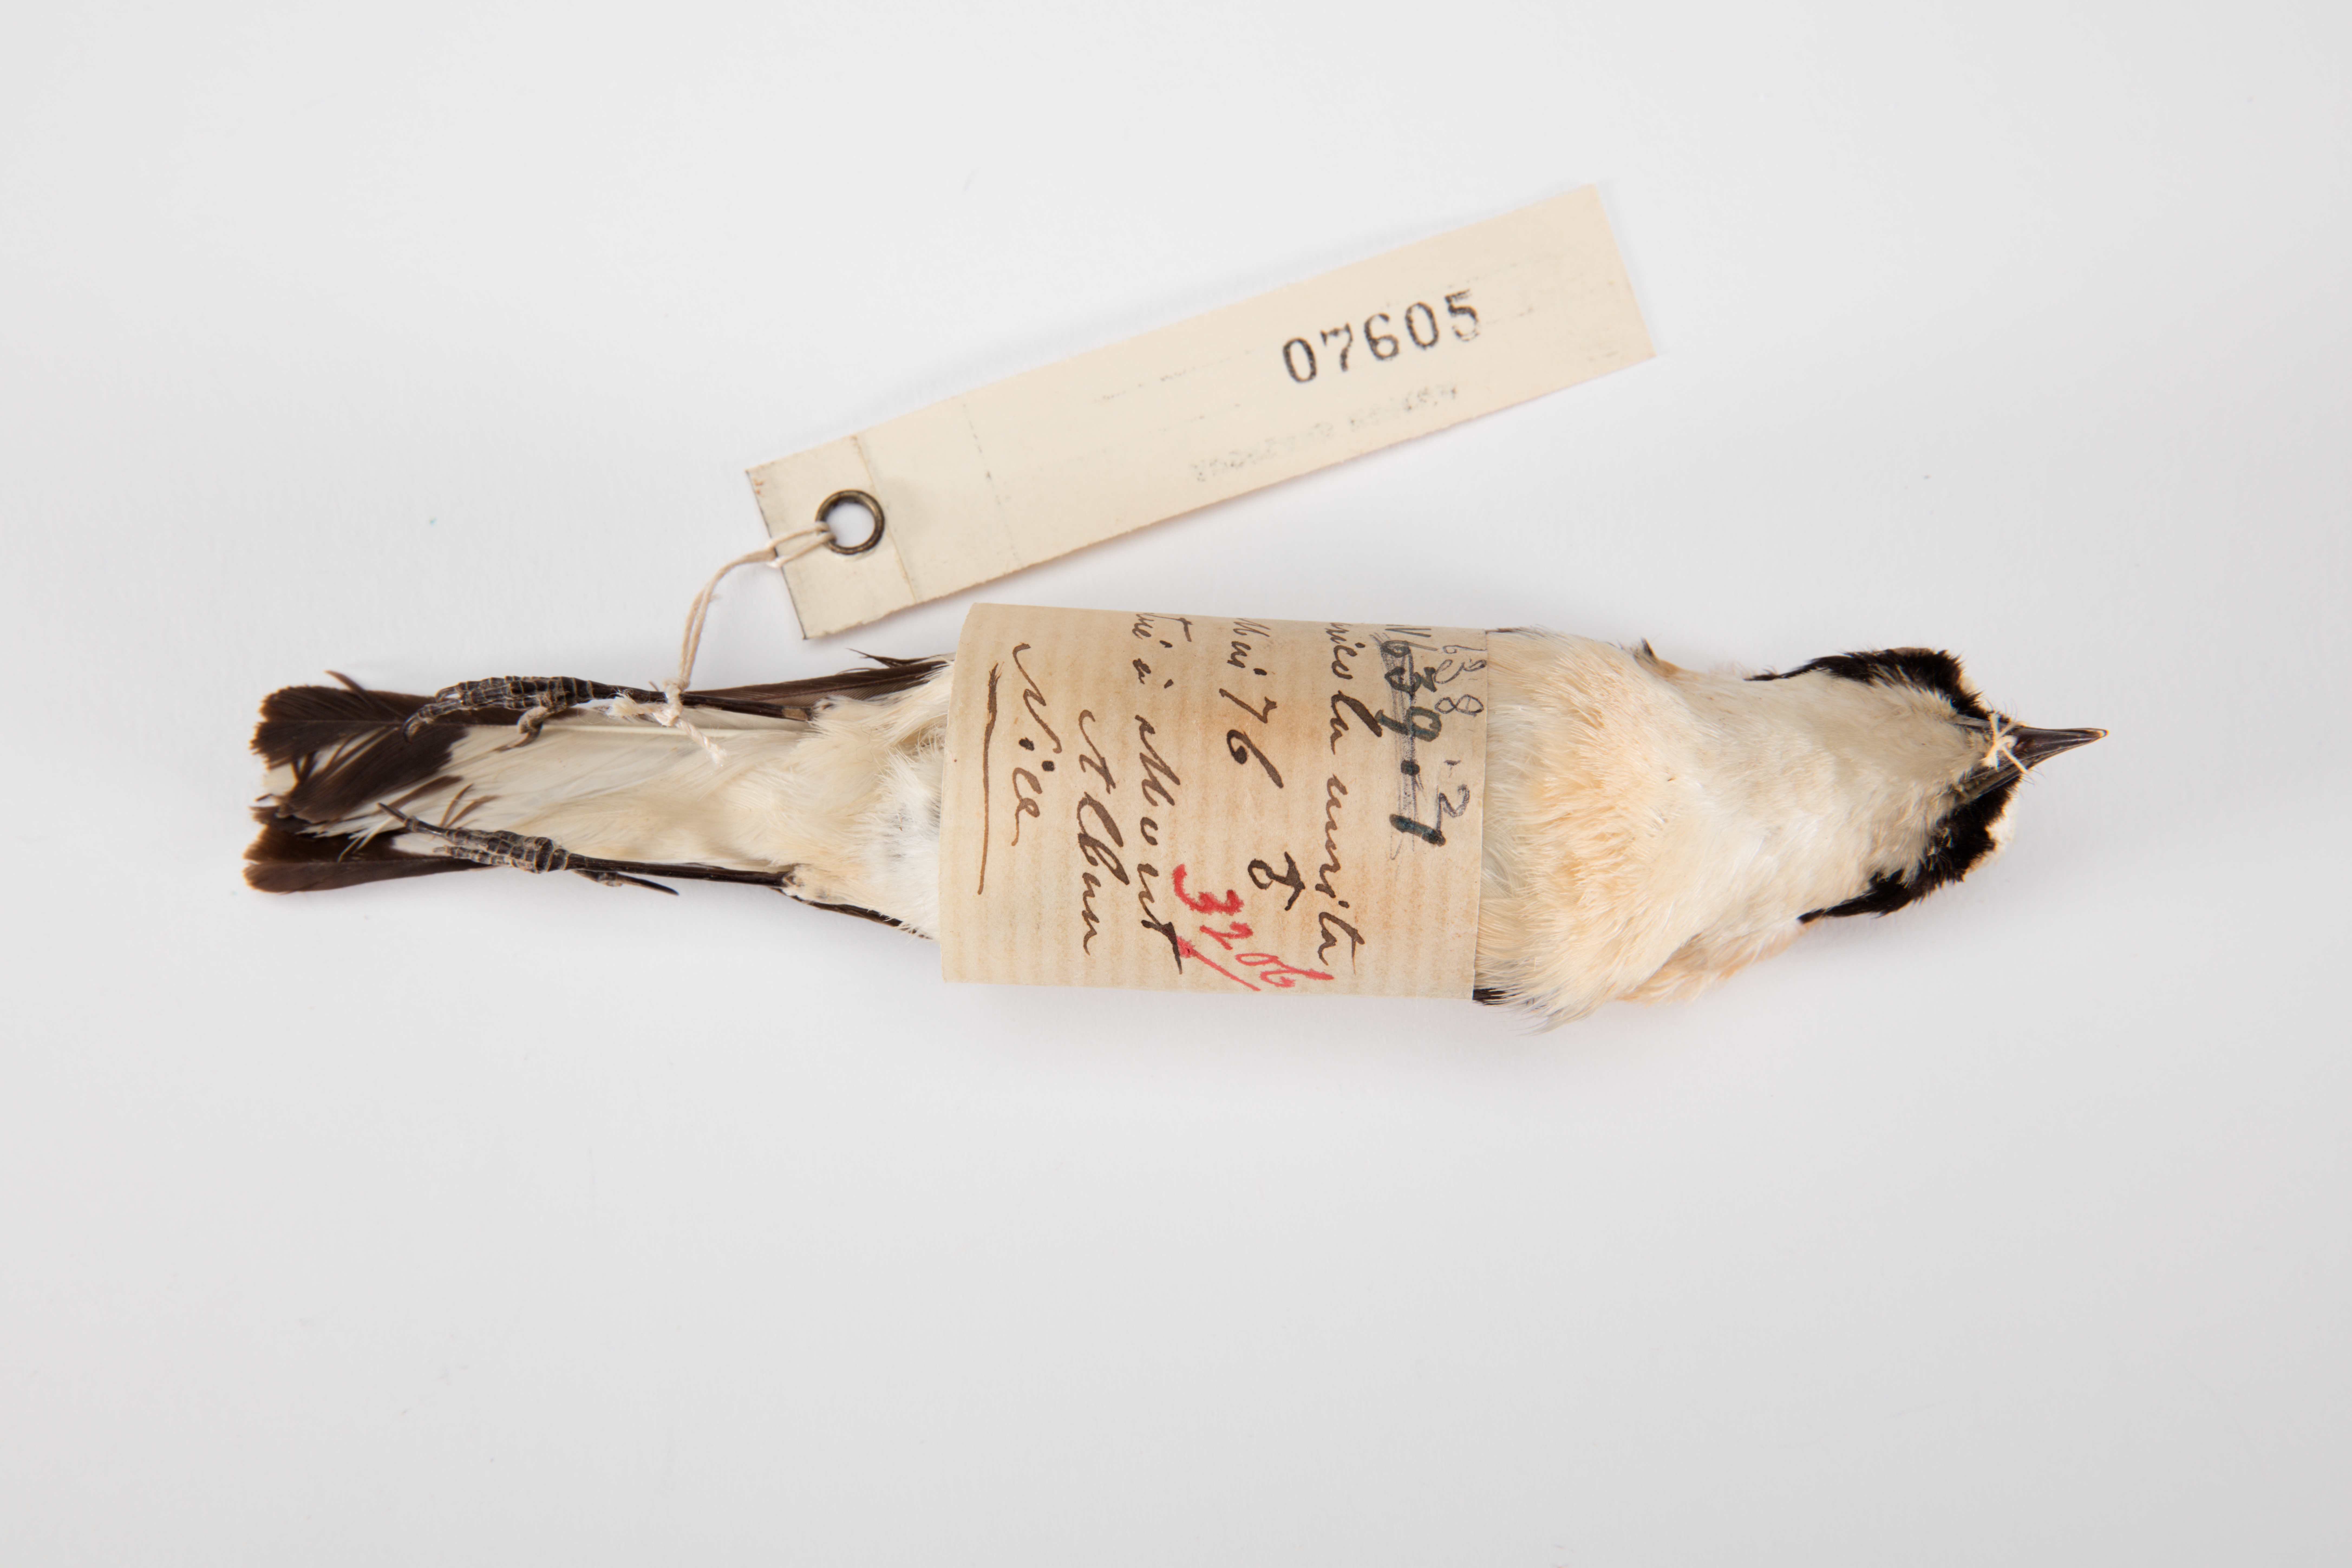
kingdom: Animalia
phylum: Chordata
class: Aves
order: Passeriformes
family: Muscicapidae
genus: Oenanthe
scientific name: Oenanthe hispanica
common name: Black-eared wheatear
